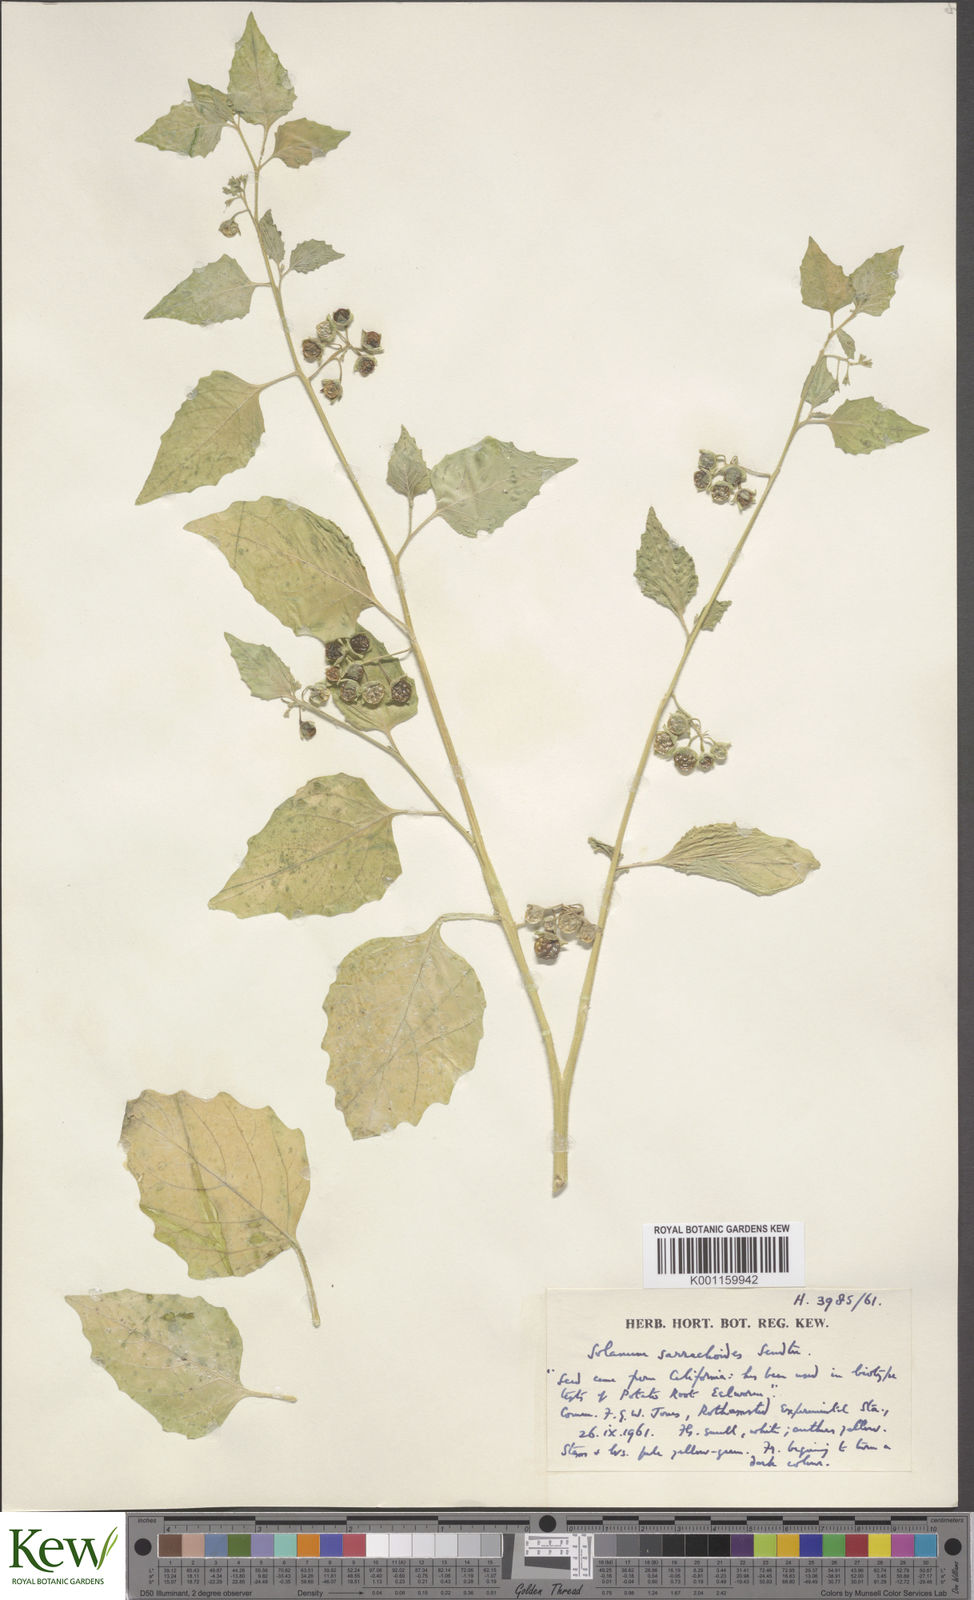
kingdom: Plantae
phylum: Tracheophyta
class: Magnoliopsida
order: Solanales
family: Solanaceae
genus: Solanum
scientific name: Solanum nitidibaccatum
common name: Hairy nightshade
